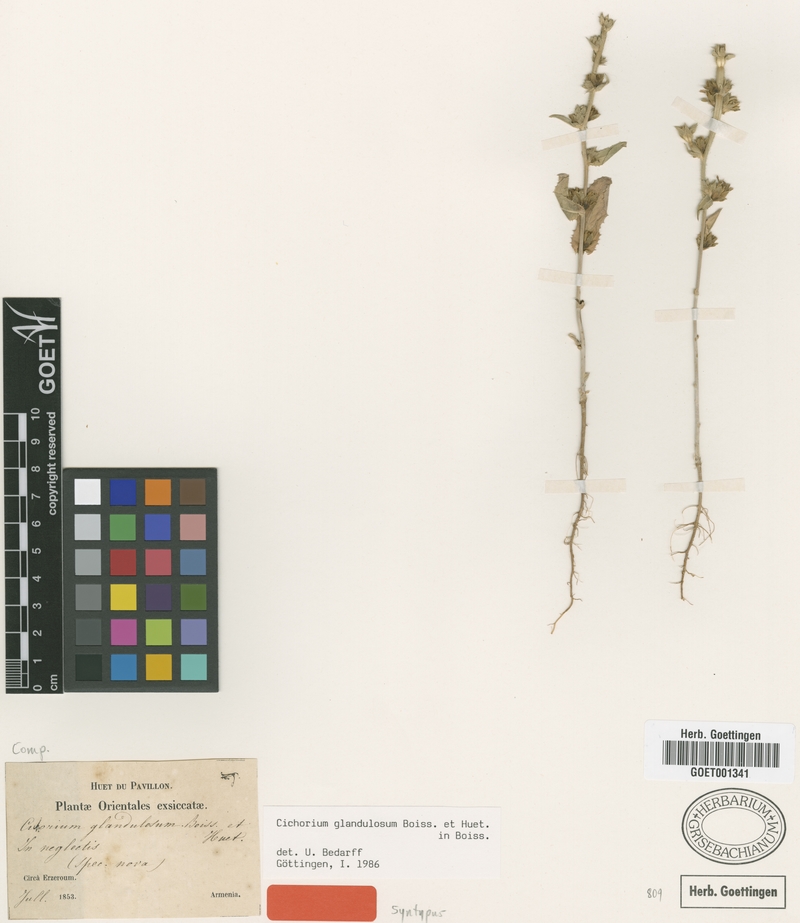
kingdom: Plantae
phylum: Tracheophyta
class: Magnoliopsida
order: Asterales
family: Asteraceae
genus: Cichorium
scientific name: Cichorium glandulosum
